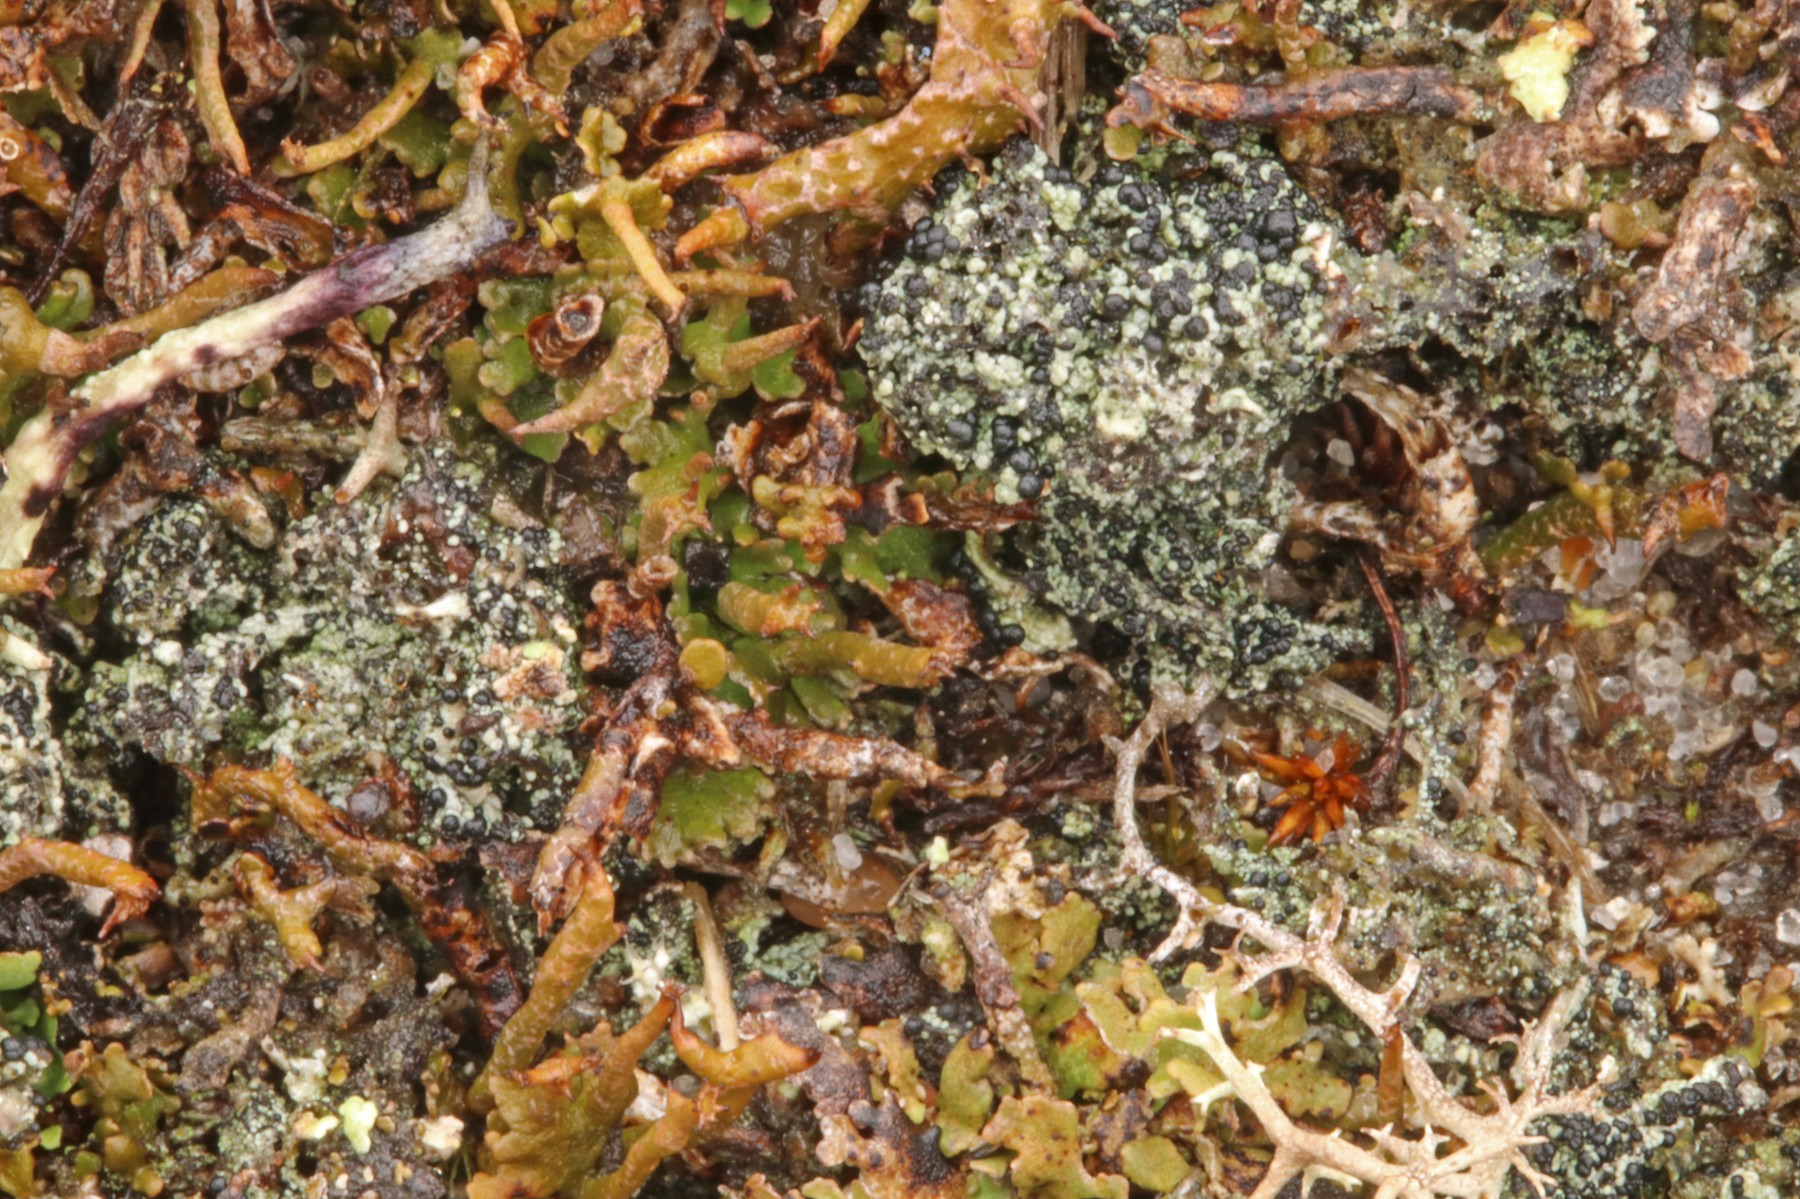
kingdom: Fungi
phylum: Ascomycota
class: Lecanoromycetes
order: Lecanorales
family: Byssolomataceae
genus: Micarea
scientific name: Micarea lignaria
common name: tørve-knaplav
